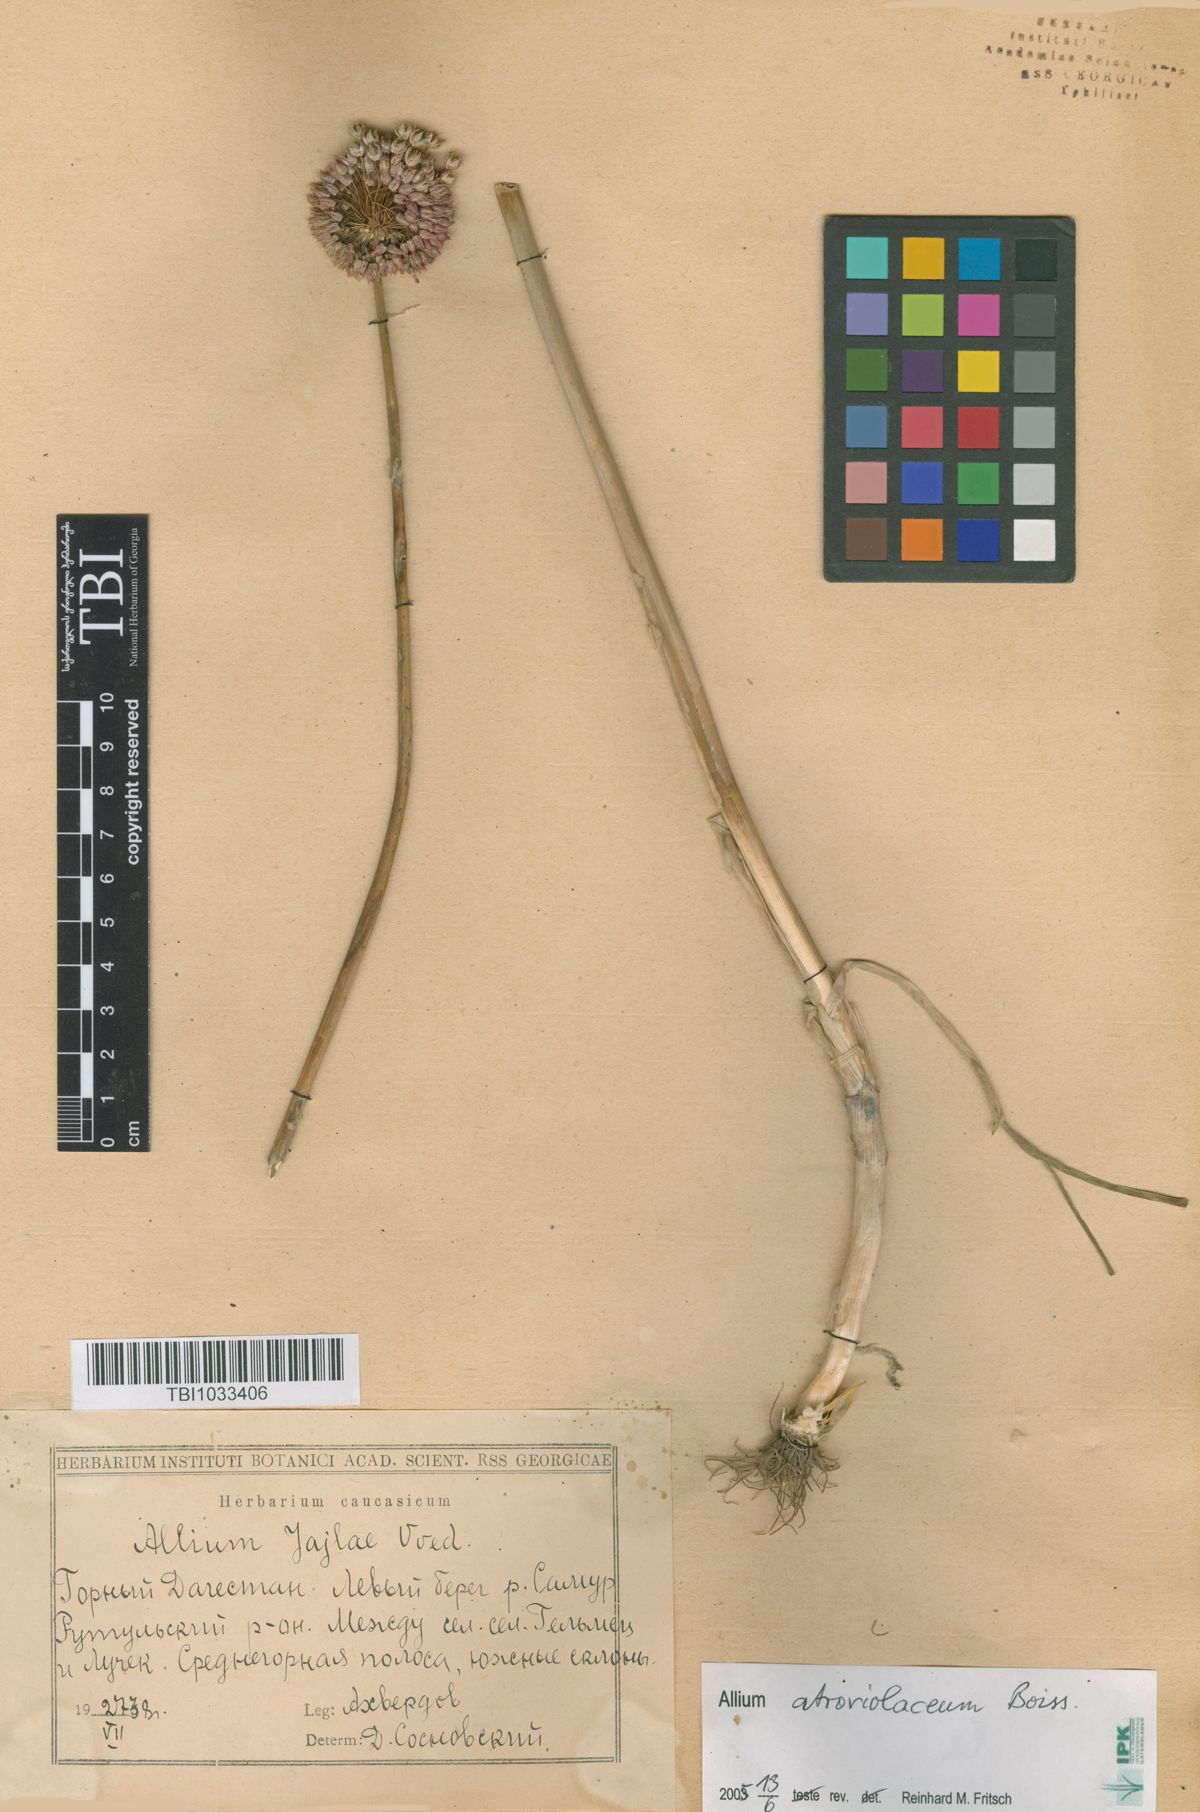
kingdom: Plantae
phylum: Tracheophyta
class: Liliopsida
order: Asparagales
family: Amaryllidaceae
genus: Allium
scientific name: Allium rotundum
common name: Sand leek
